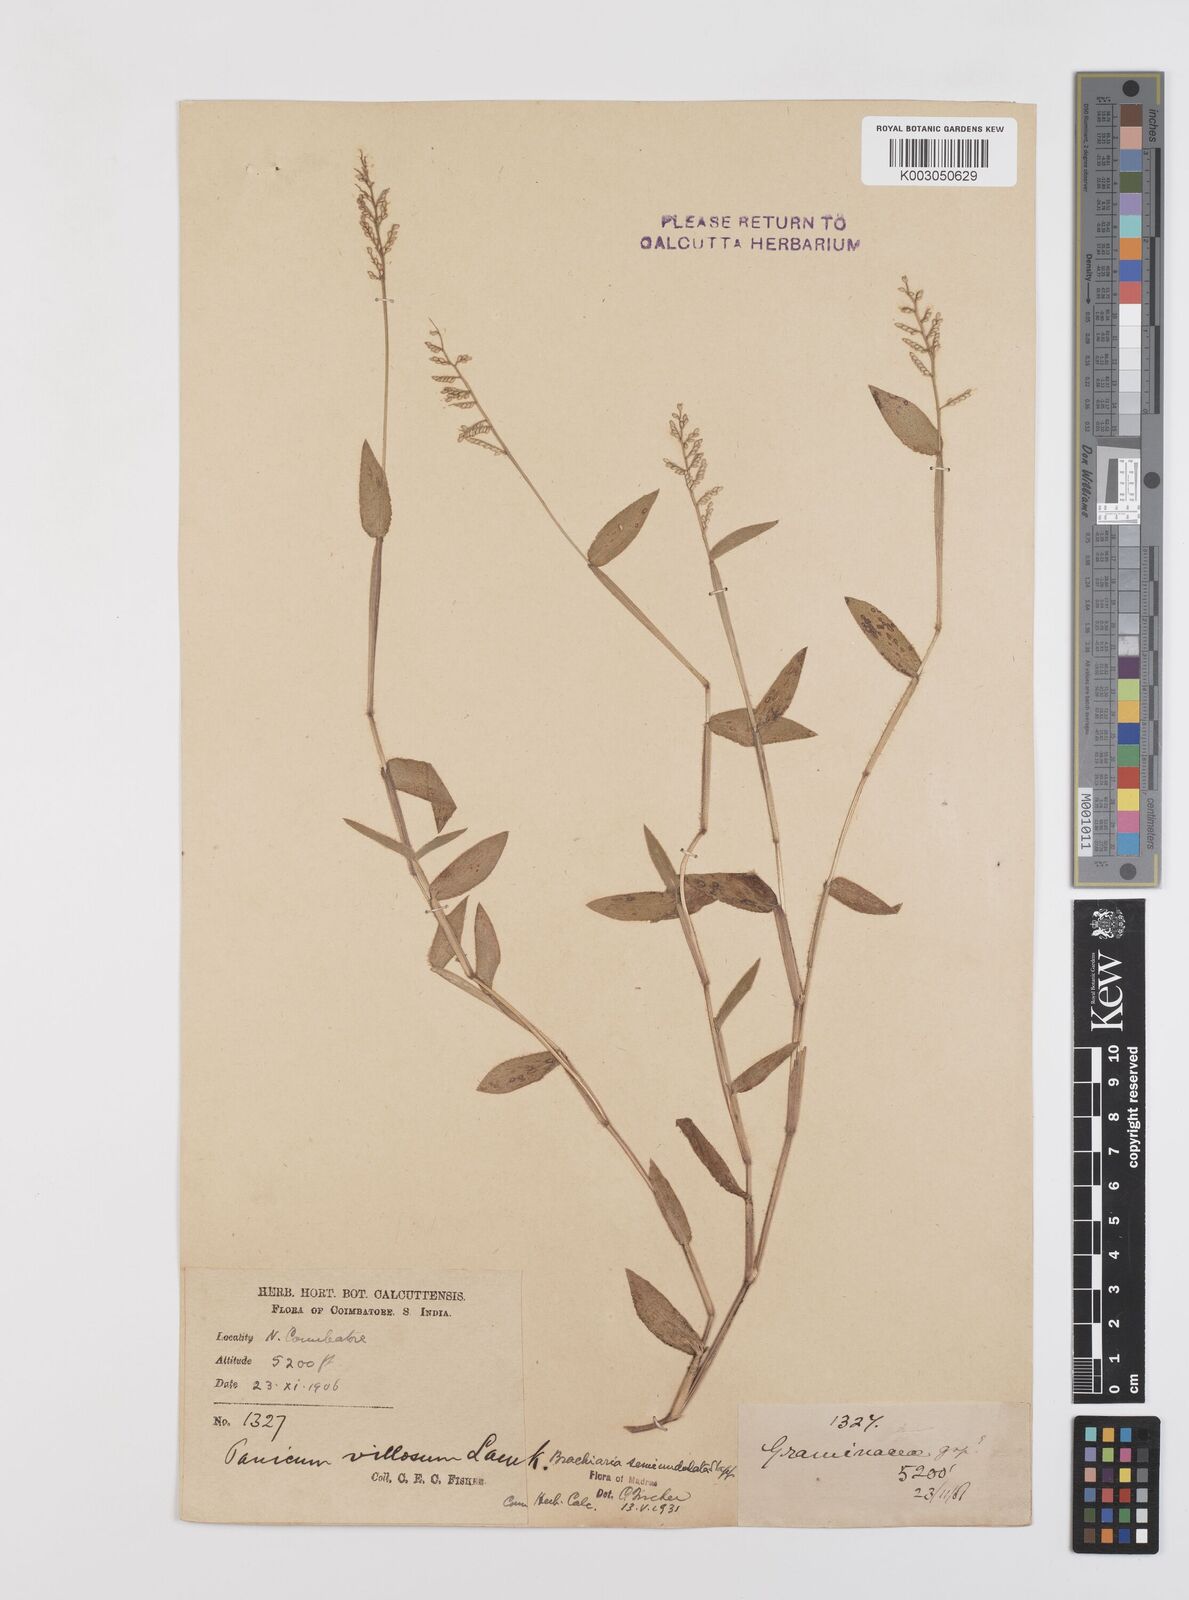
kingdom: Plantae
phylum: Tracheophyta
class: Liliopsida
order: Poales
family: Poaceae
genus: Urochloa
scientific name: Urochloa semiundulata
